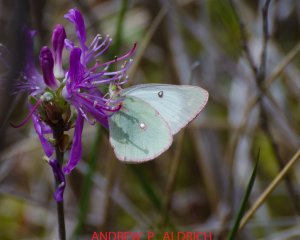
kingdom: Animalia
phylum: Arthropoda
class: Insecta
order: Lepidoptera
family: Pieridae
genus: Colias
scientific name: Colias interior
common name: Pink-edged Sulphur
